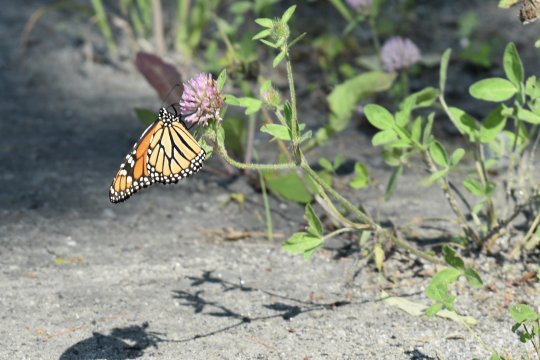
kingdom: Animalia
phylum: Arthropoda
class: Insecta
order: Lepidoptera
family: Nymphalidae
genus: Danaus
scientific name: Danaus plexippus
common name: Monarch
